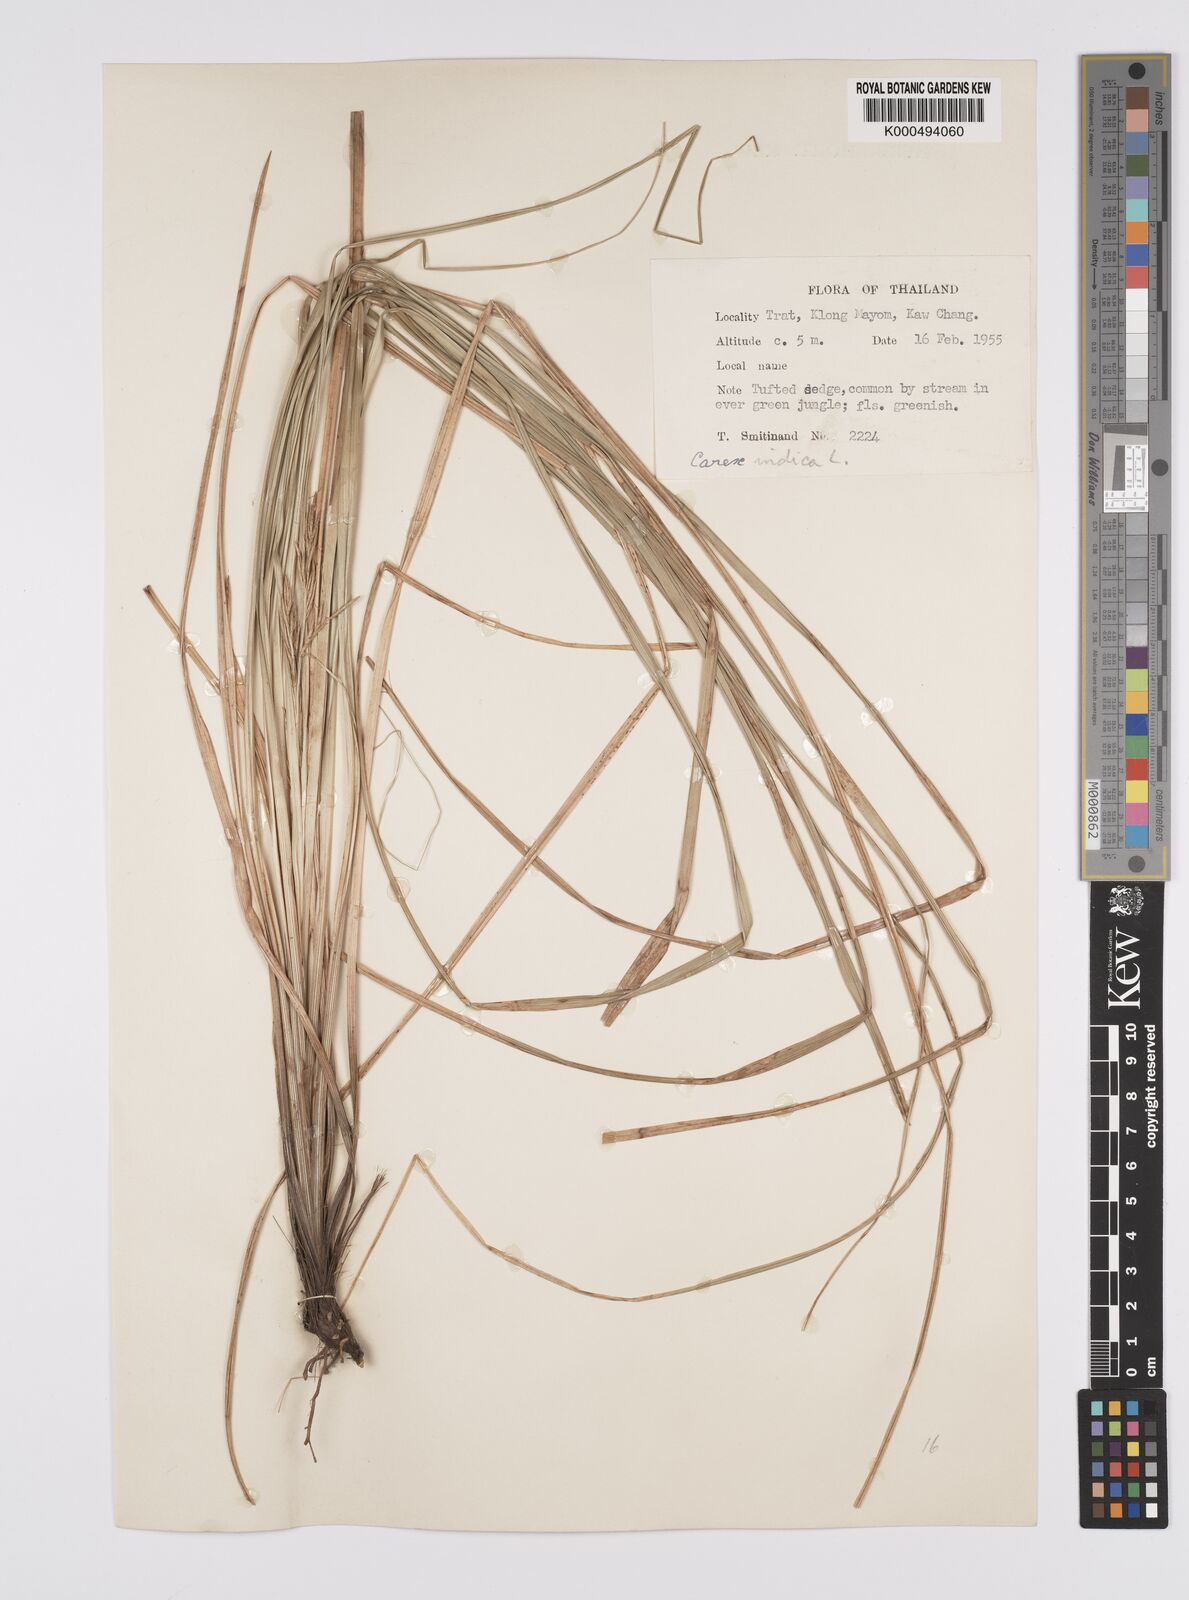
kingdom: Plantae
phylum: Tracheophyta
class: Liliopsida
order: Poales
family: Cyperaceae
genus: Carex
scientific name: Carex indica
